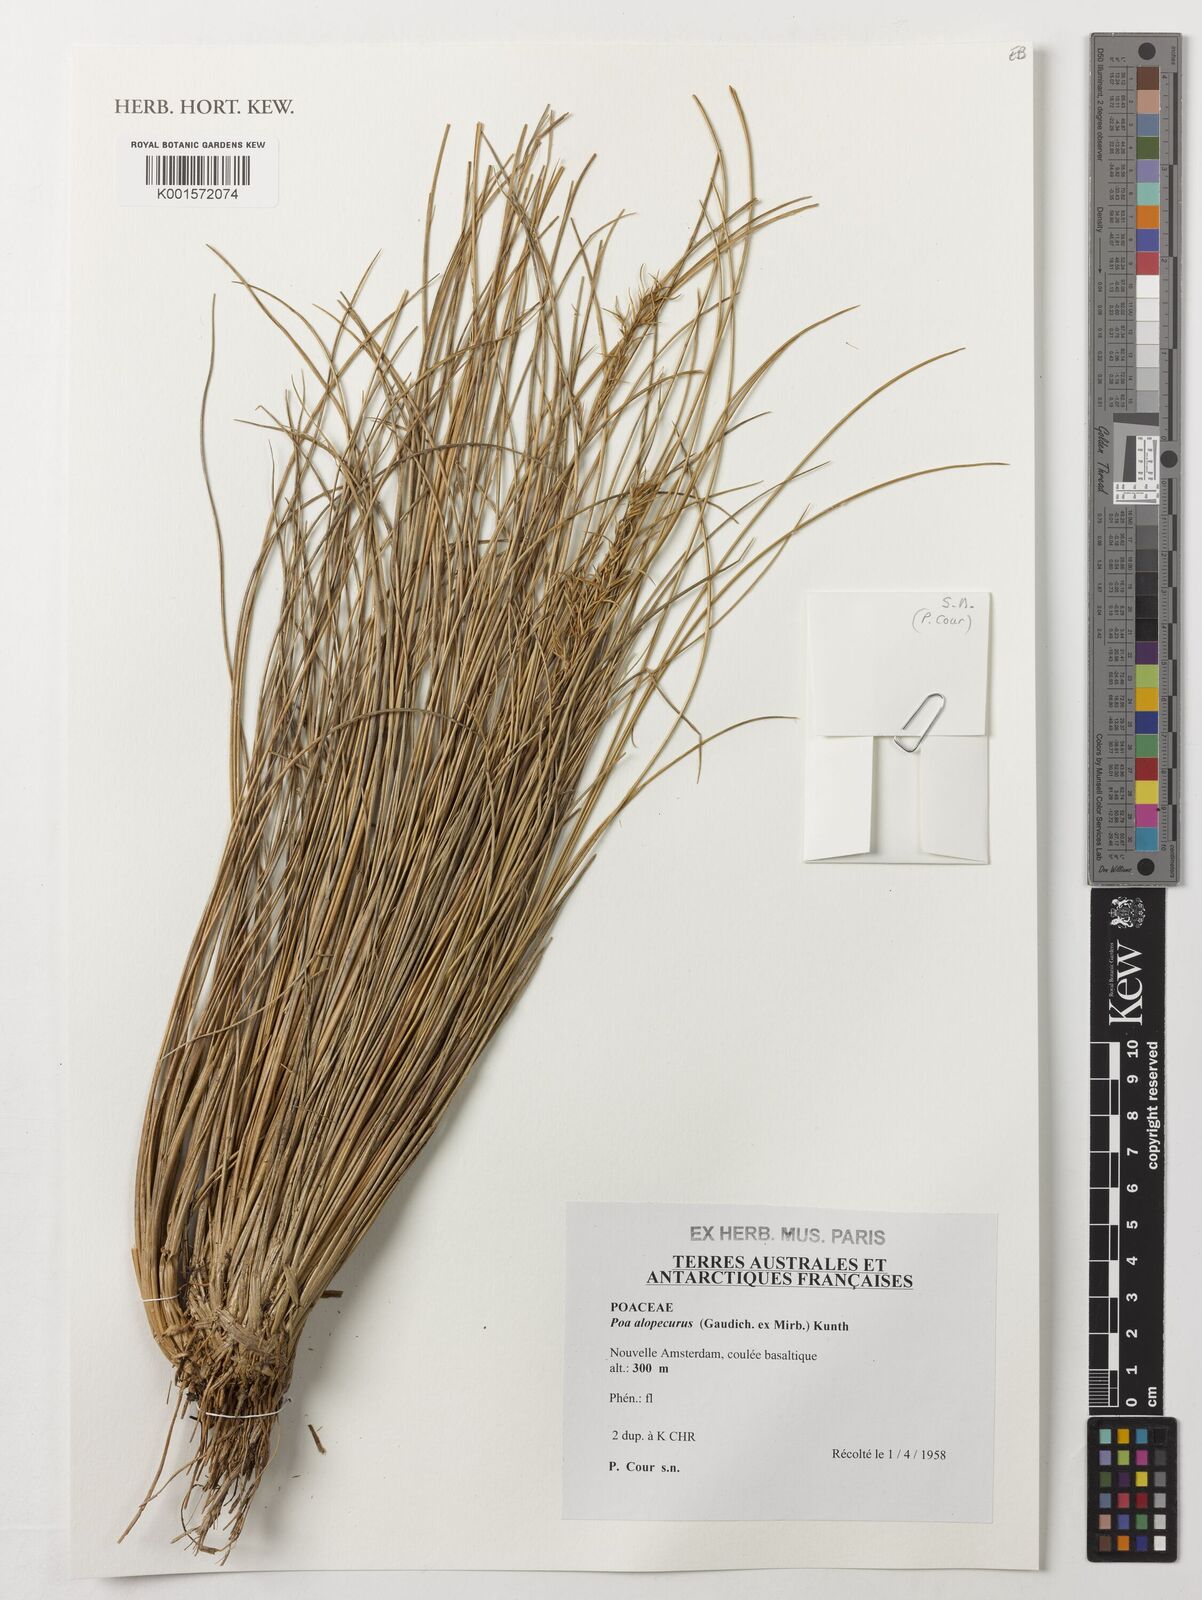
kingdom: Plantae
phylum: Tracheophyta
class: Liliopsida
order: Poales
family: Poaceae
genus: Poa
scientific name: Poa alopecurus
